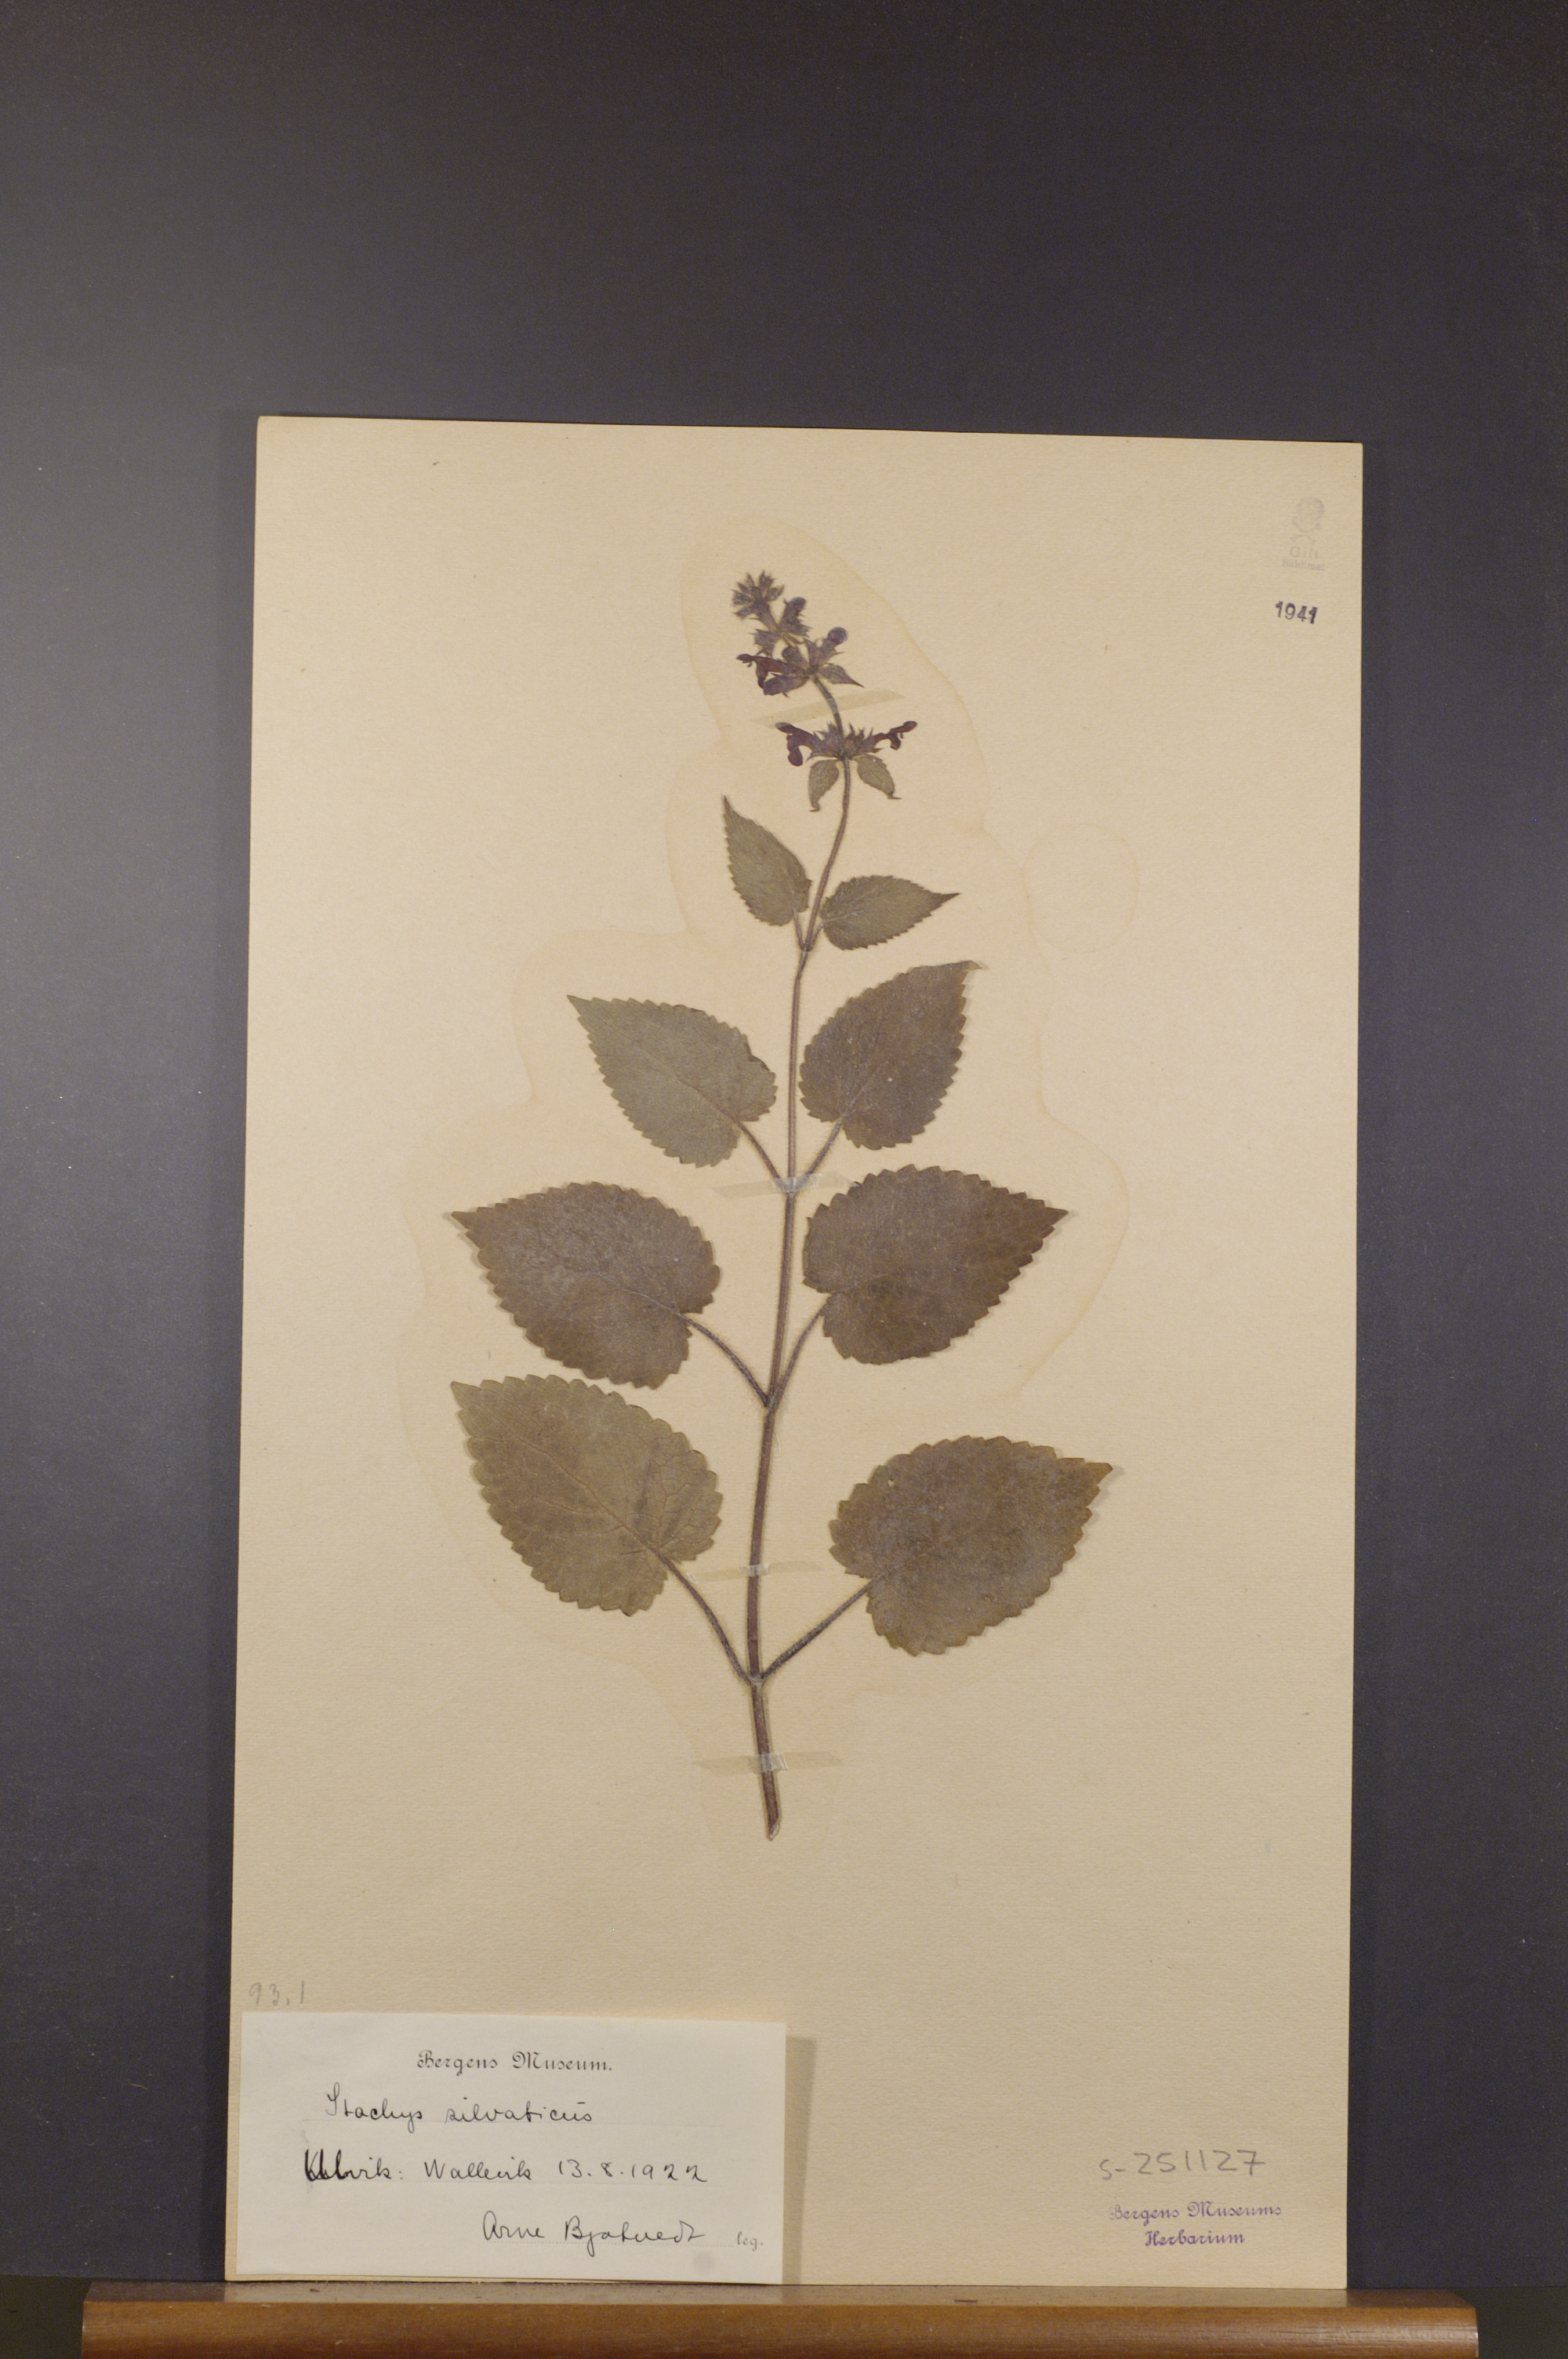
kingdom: Plantae
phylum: Tracheophyta
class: Magnoliopsida
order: Lamiales
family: Lamiaceae
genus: Stachys
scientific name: Stachys sylvatica
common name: Hedge woundwort
